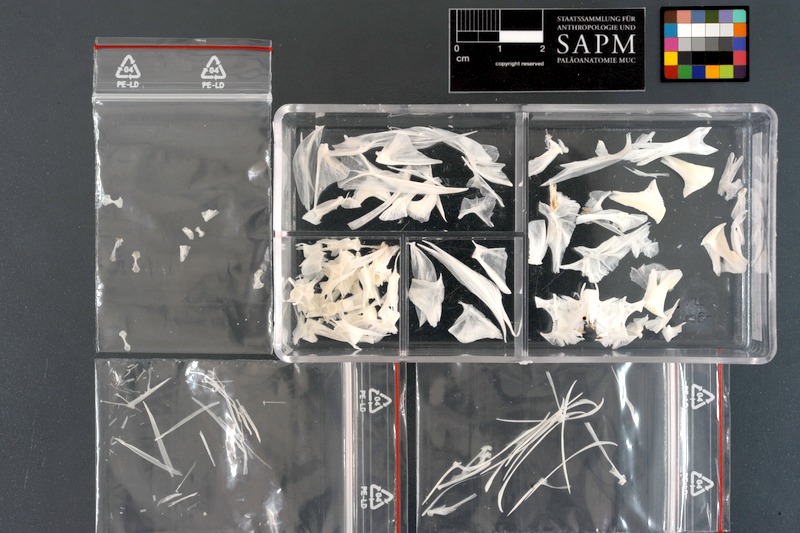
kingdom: Animalia
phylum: Chordata
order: Tetraodontiformes
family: Tetraodontidae
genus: Lagocephalus
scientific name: Lagocephalus sceleratus
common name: Silverstripe blaasop
